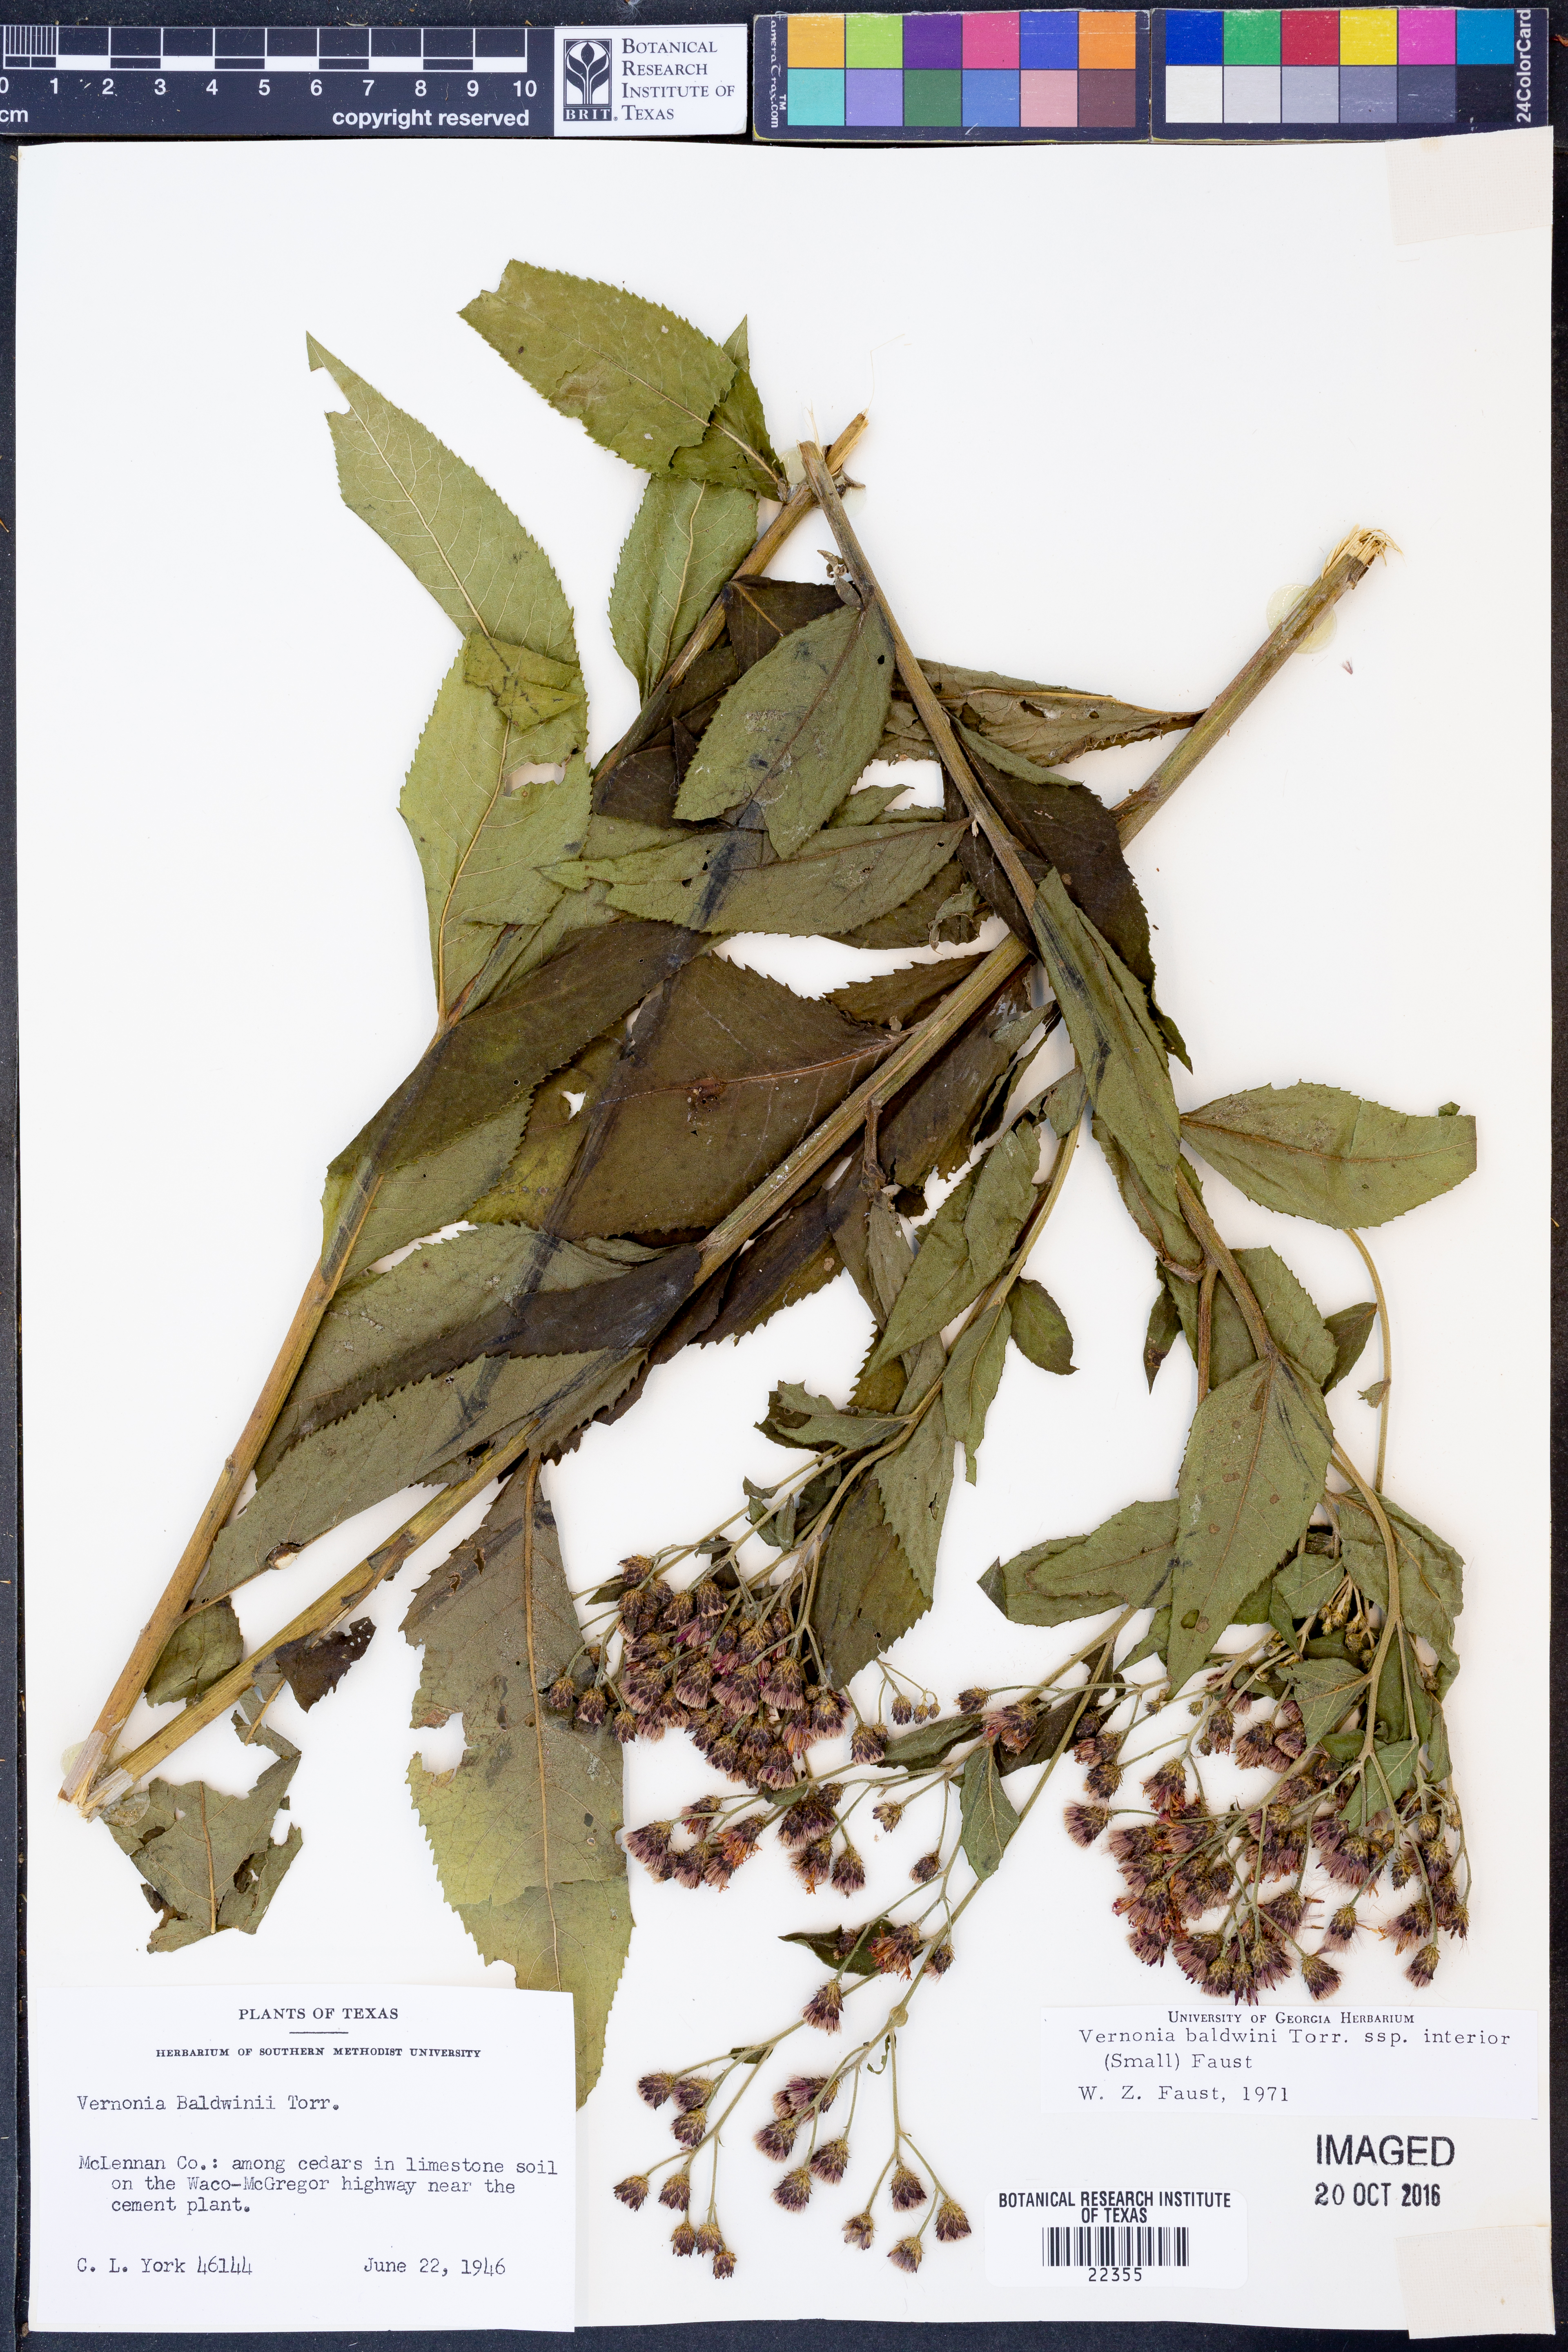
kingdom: Plantae
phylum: Tracheophyta
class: Magnoliopsida
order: Asterales
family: Asteraceae
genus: Vernonia
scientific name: Vernonia baldwinii
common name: Western ironweed
